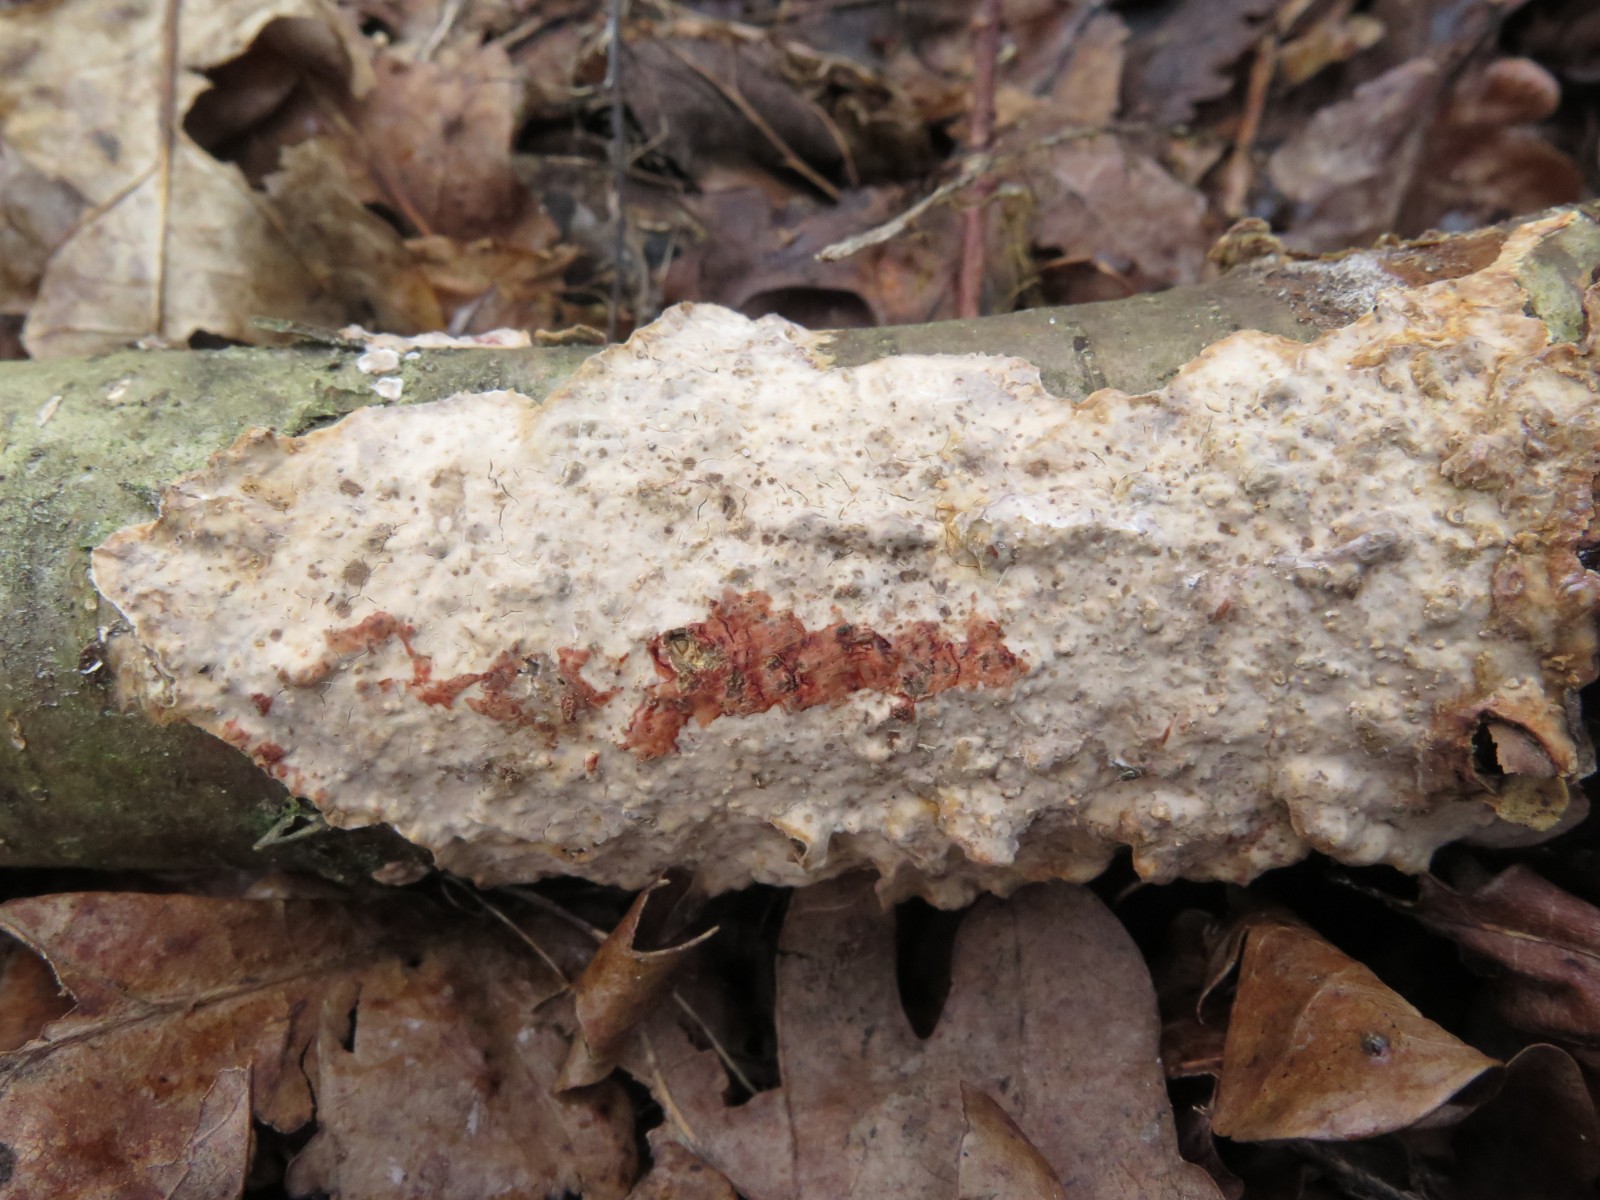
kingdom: Fungi
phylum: Basidiomycota
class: Agaricomycetes
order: Russulales
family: Stereaceae
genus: Stereum
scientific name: Stereum rugosum
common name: rynket lædersvamp
